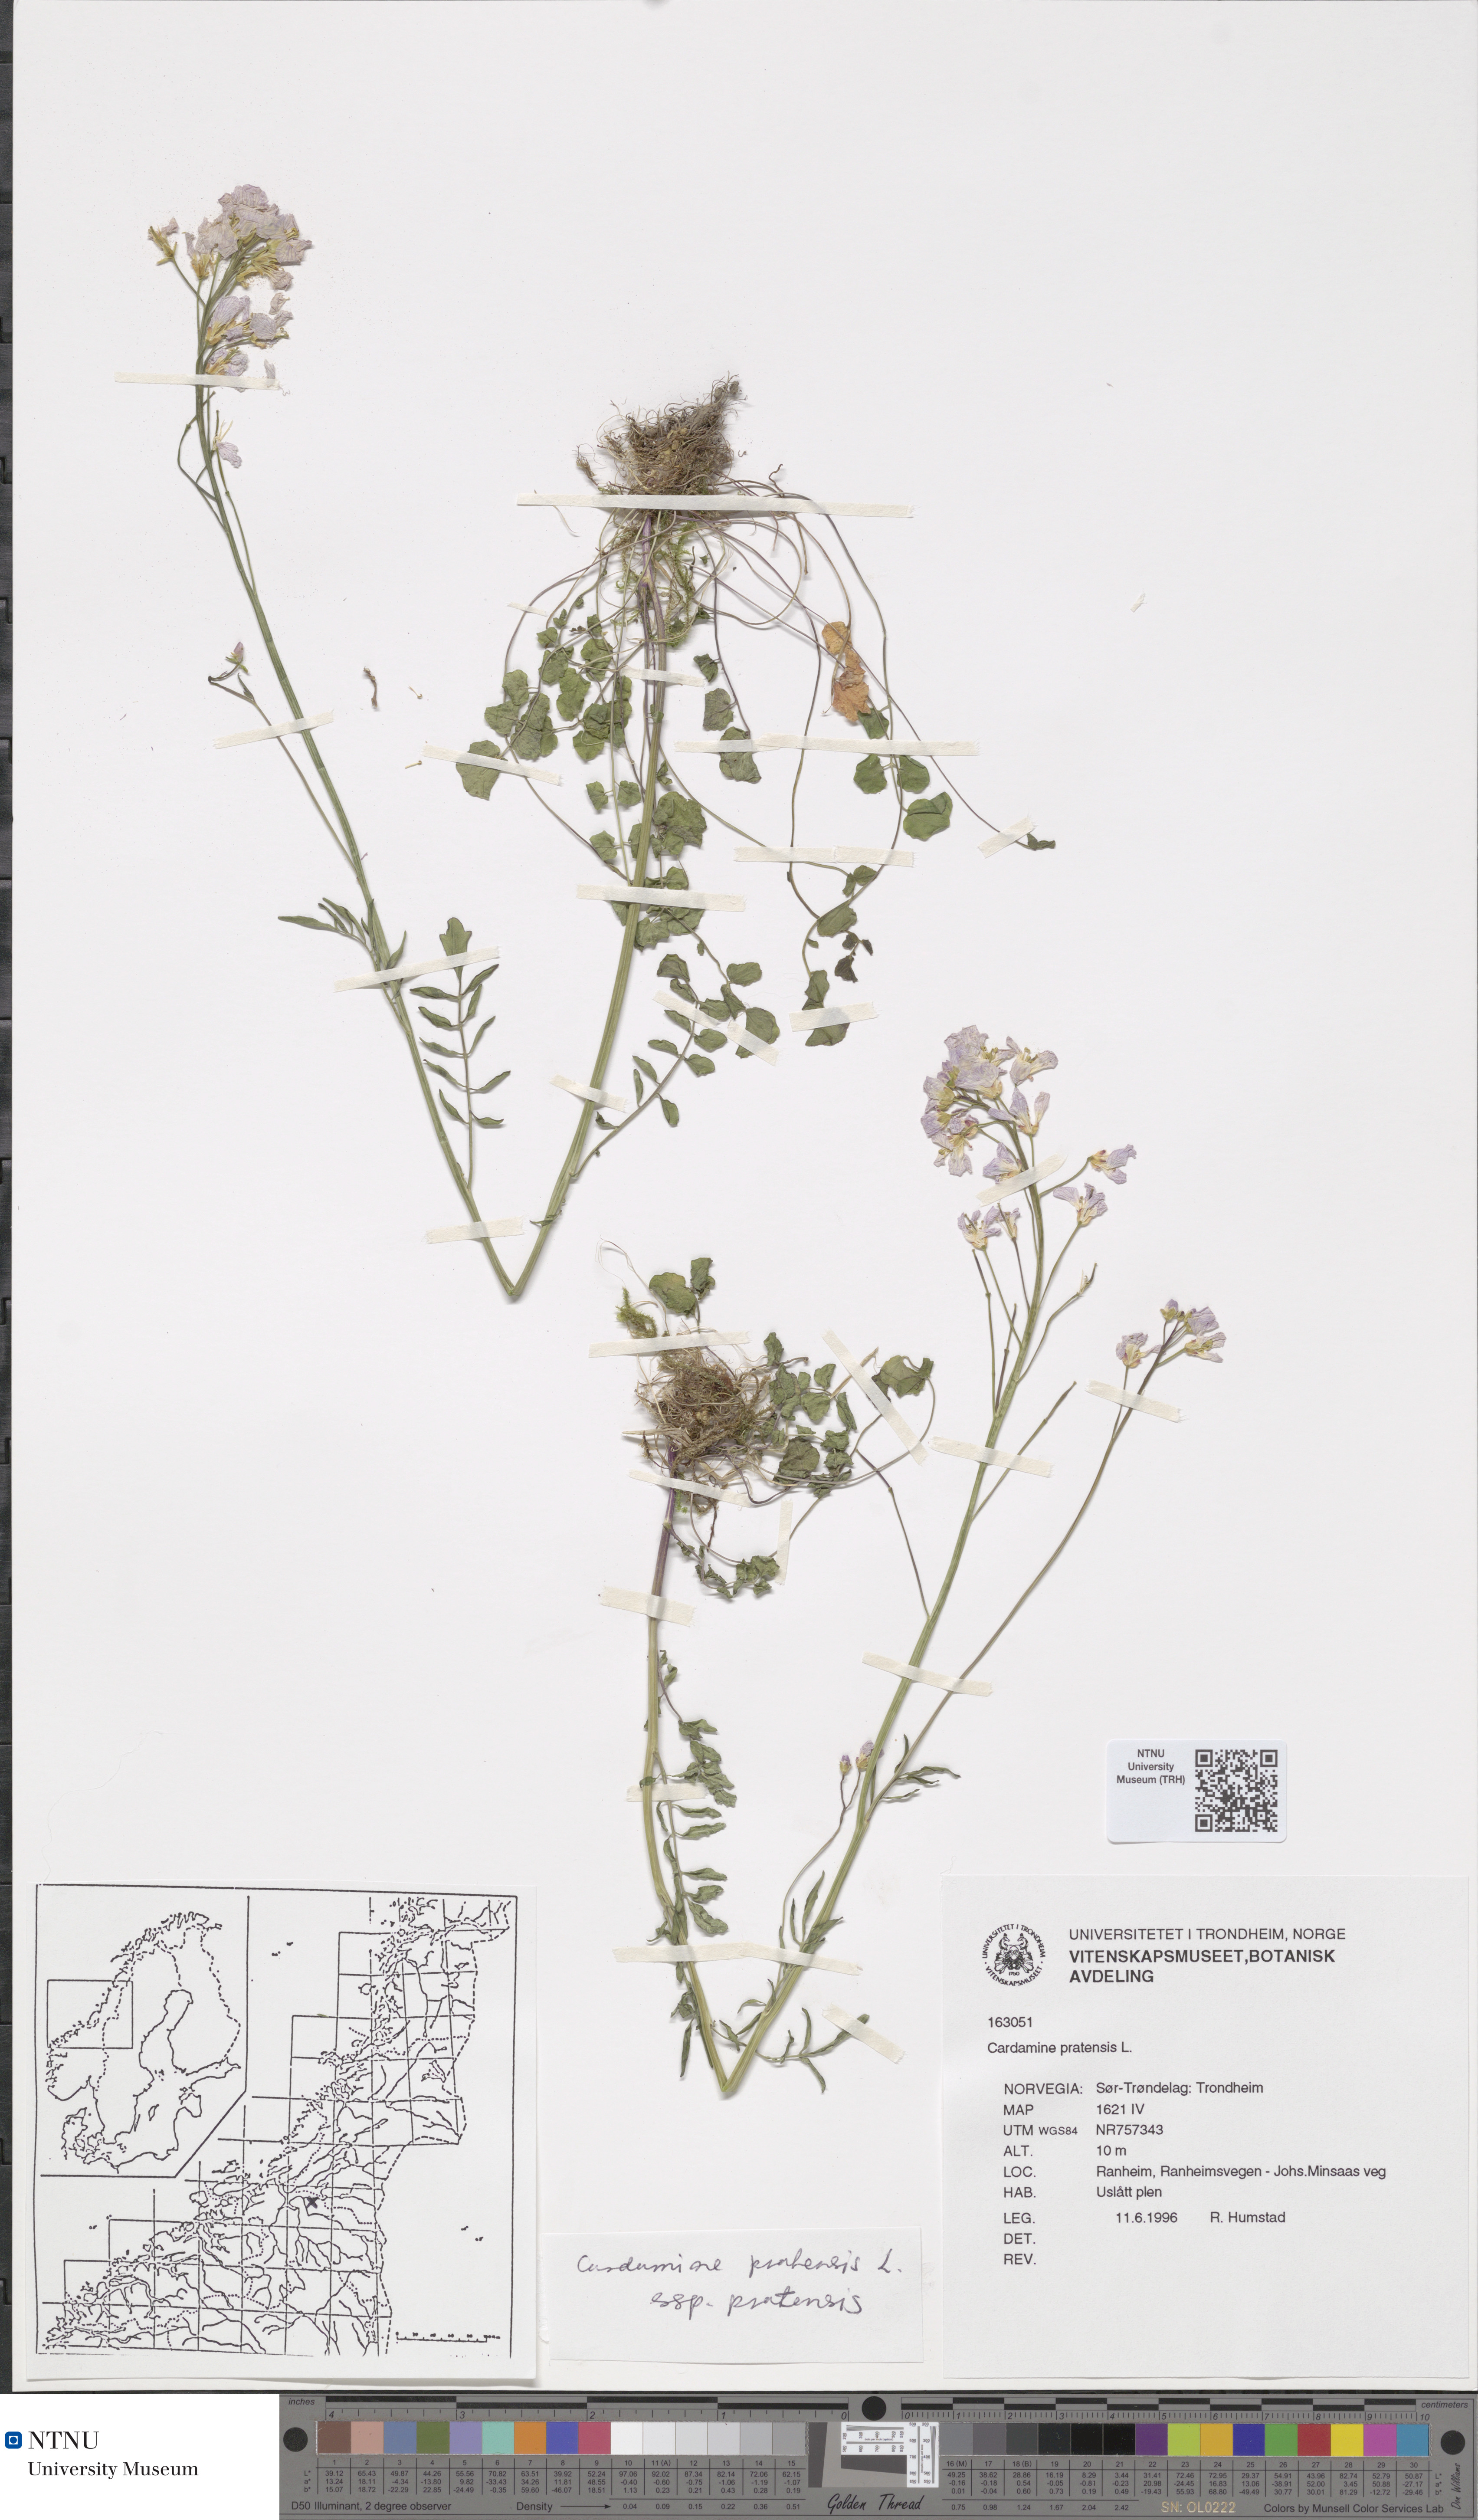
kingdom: Plantae
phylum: Tracheophyta
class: Magnoliopsida
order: Brassicales
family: Brassicaceae
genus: Cardamine
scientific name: Cardamine pratensis
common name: Cuckoo flower
